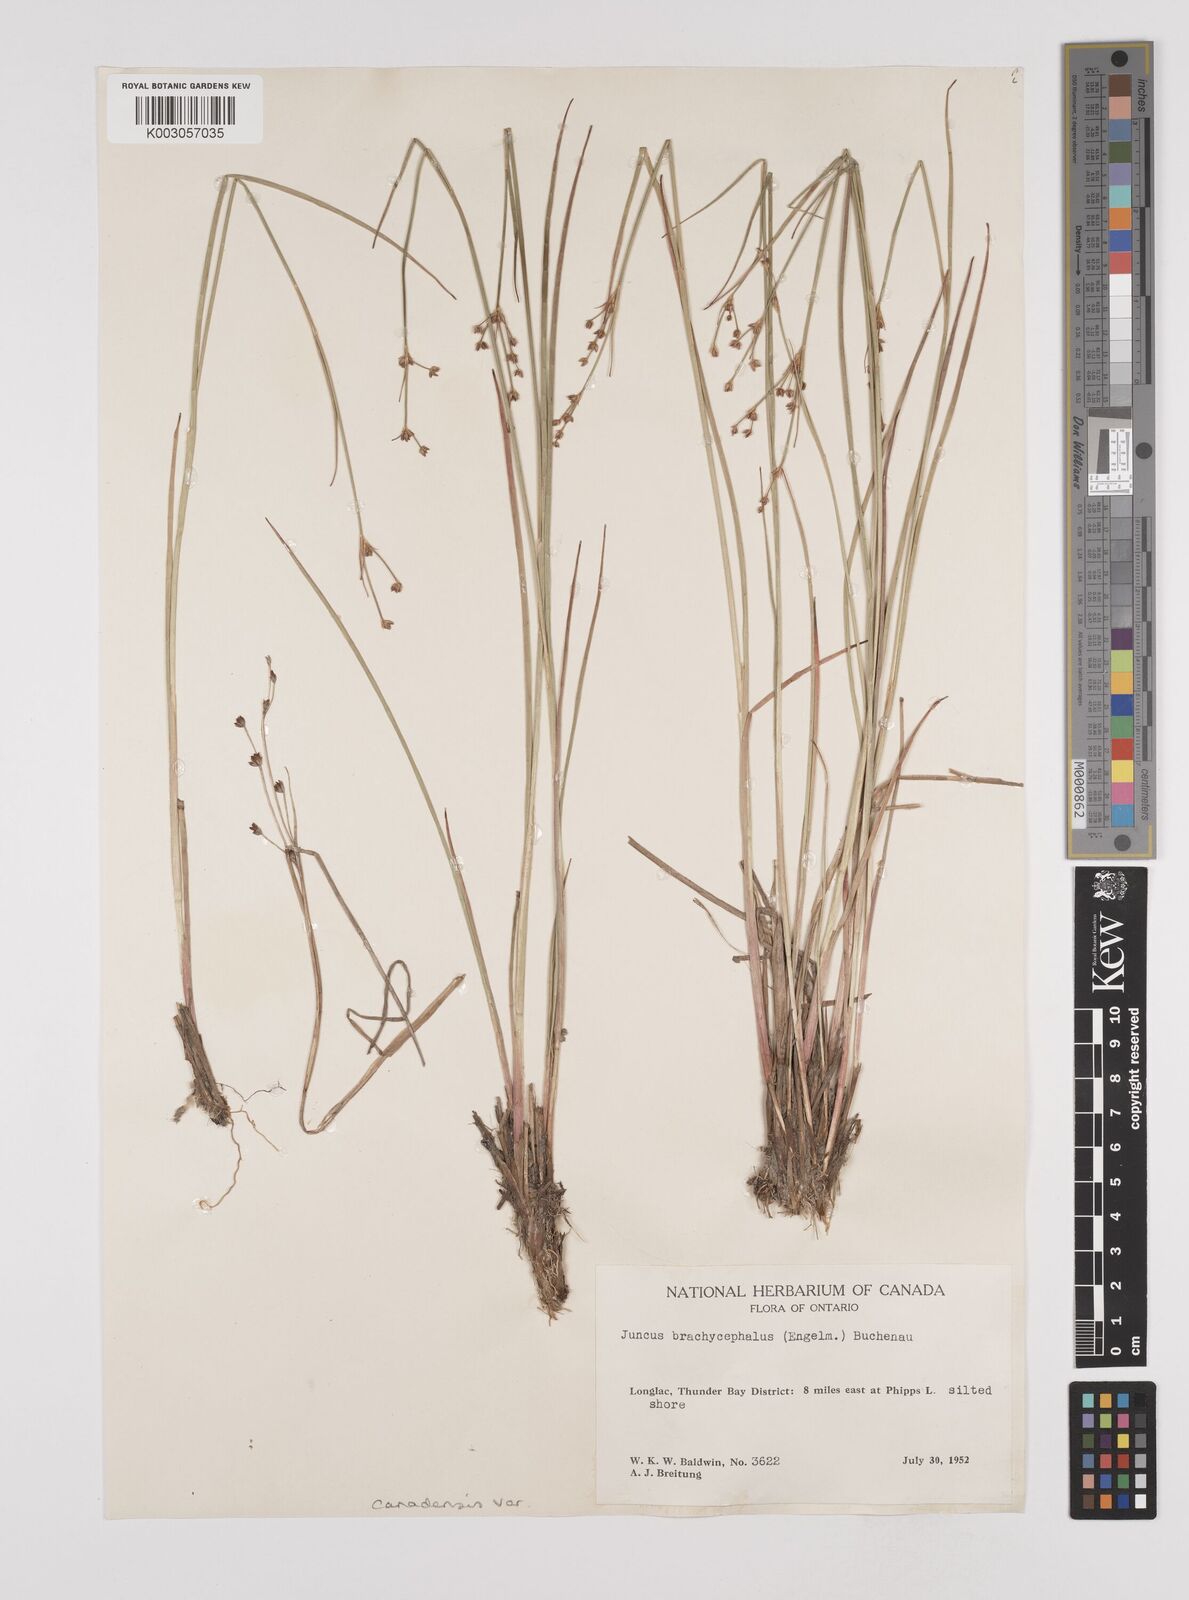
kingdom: Plantae
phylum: Tracheophyta
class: Liliopsida
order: Poales
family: Juncaceae
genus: Juncus
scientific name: Juncus canadensis
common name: Canada rush
